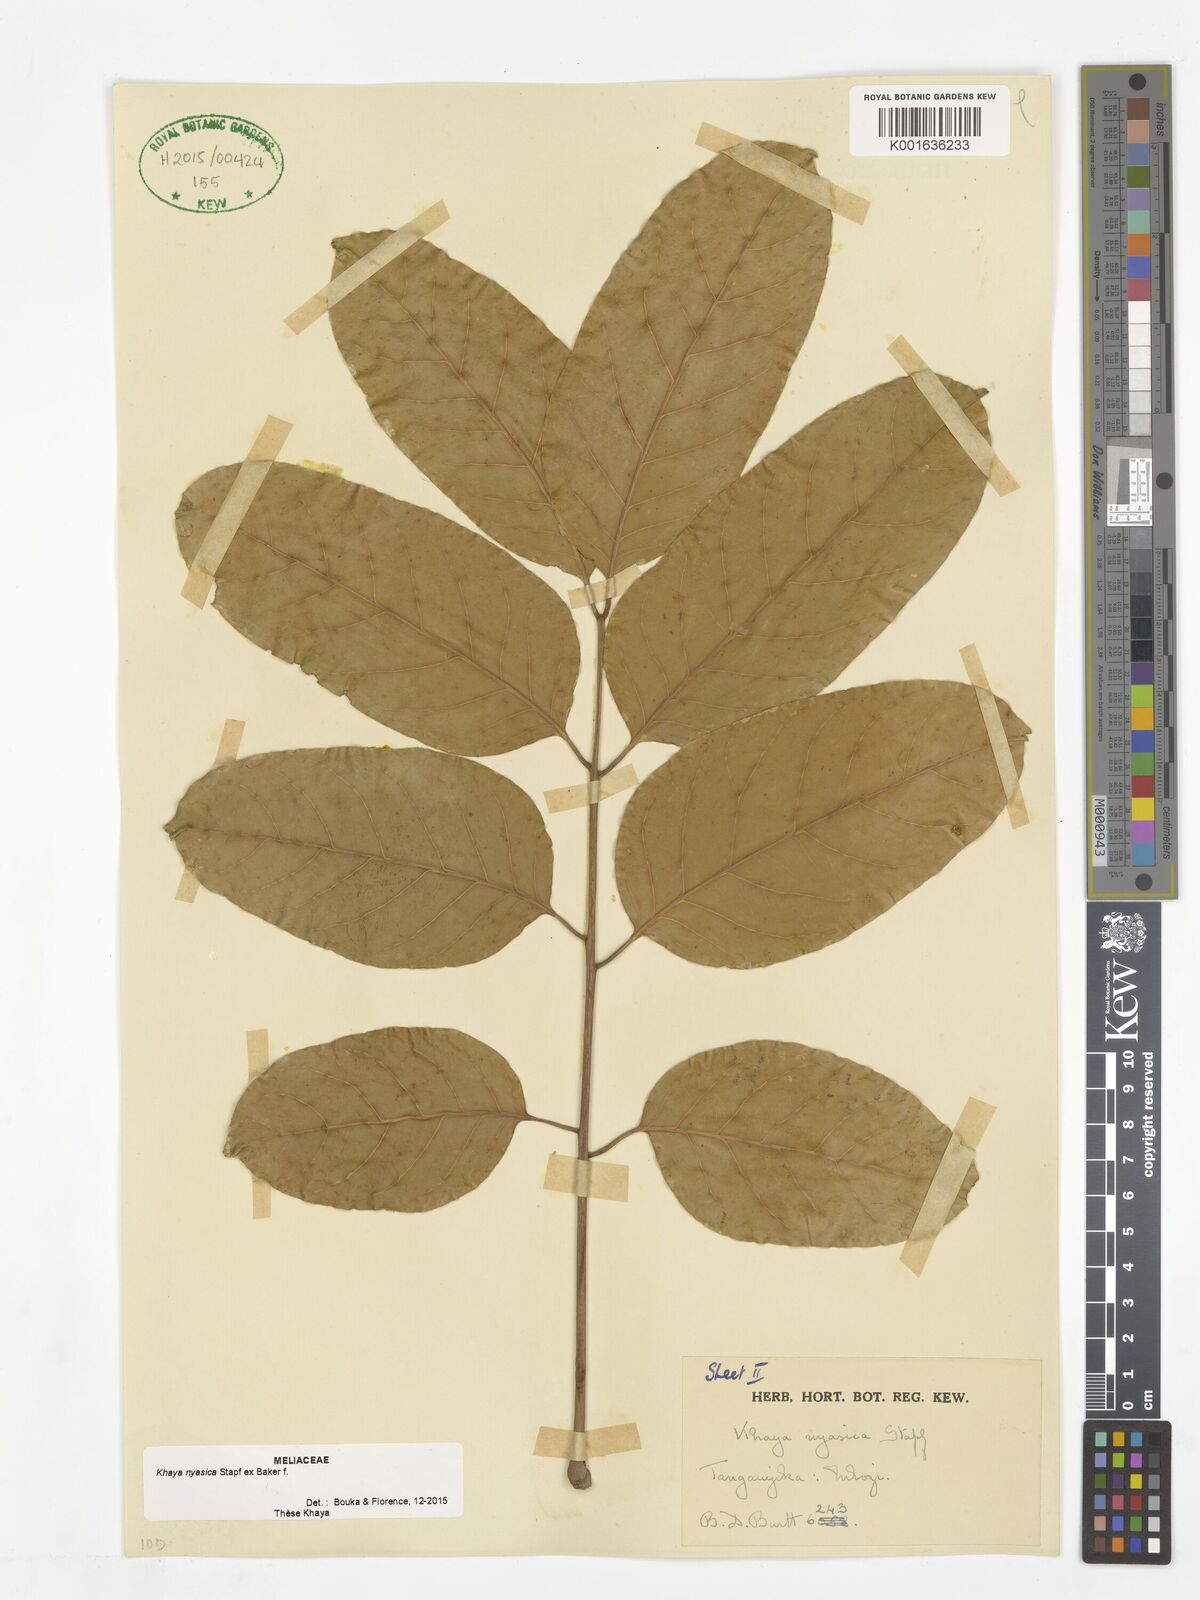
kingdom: Plantae
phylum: Tracheophyta
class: Magnoliopsida
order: Sapindales
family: Meliaceae
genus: Khaya
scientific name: Khaya nyasica
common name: Nyasaland mahogany
